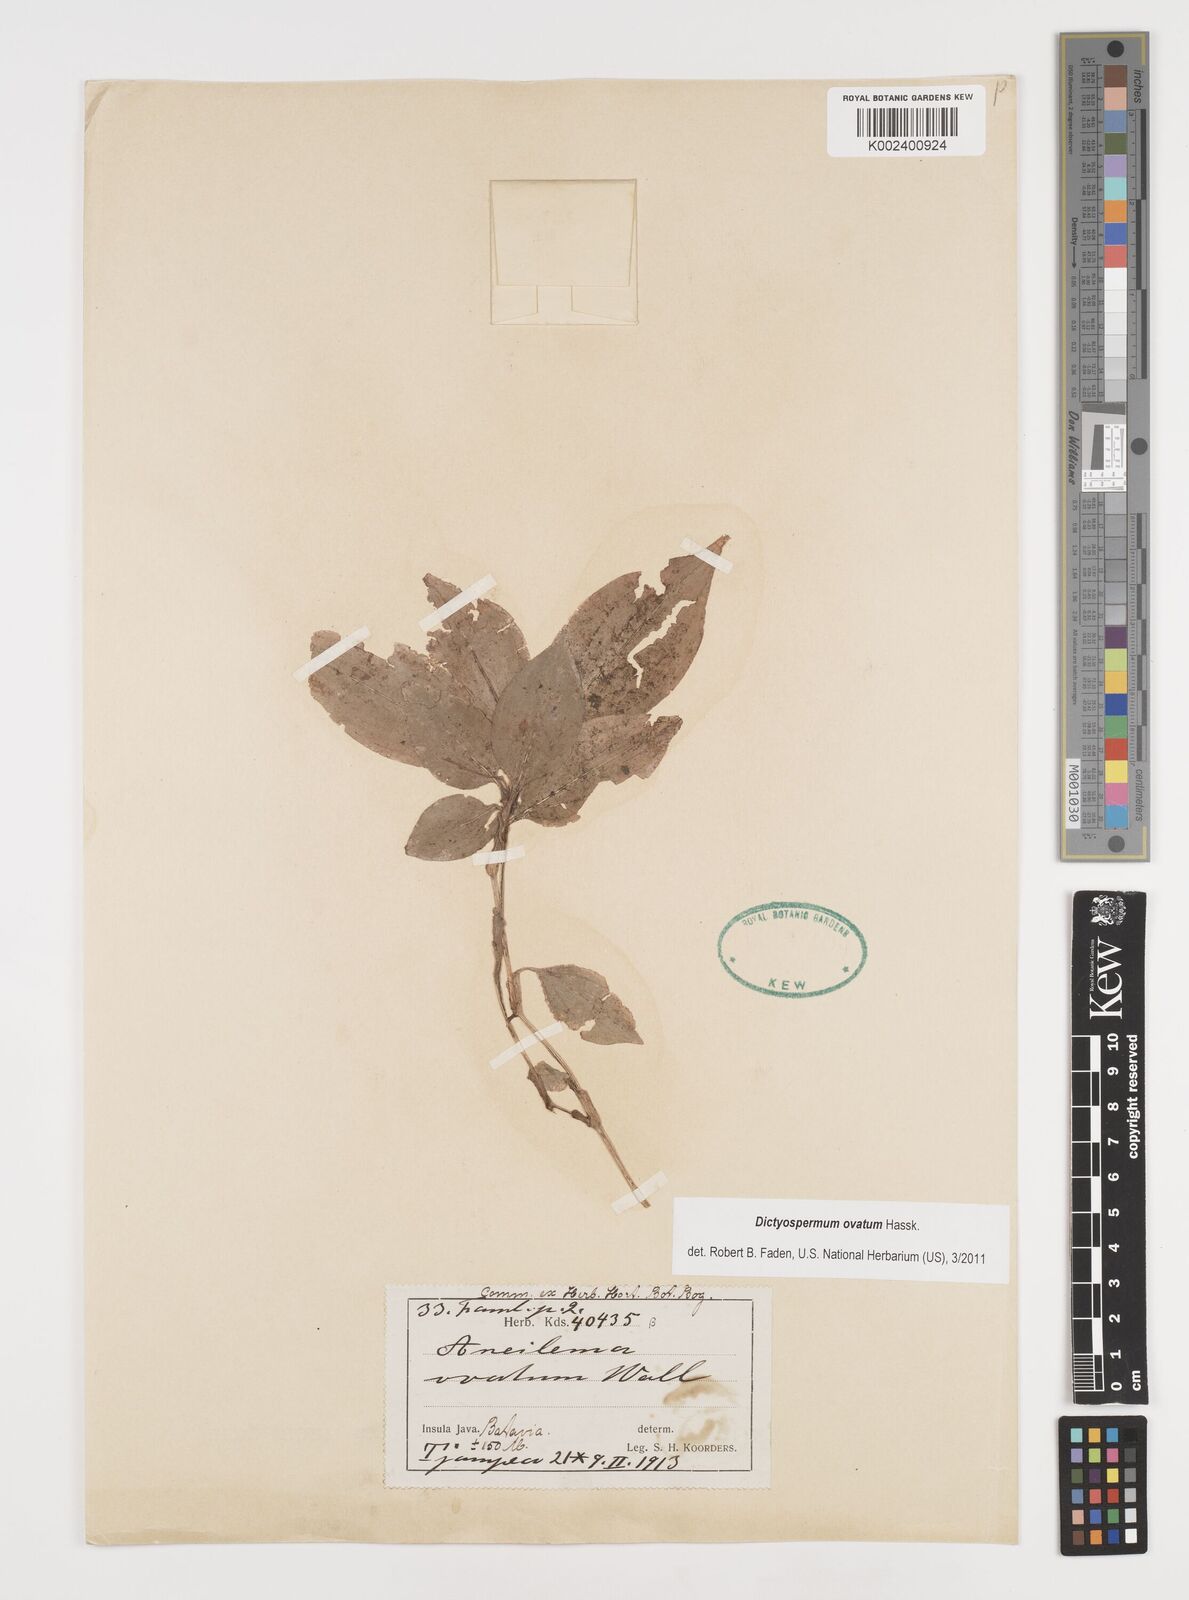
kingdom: Plantae
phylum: Tracheophyta
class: Liliopsida
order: Commelinales
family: Commelinaceae
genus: Dictyospermum
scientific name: Dictyospermum ovatum
